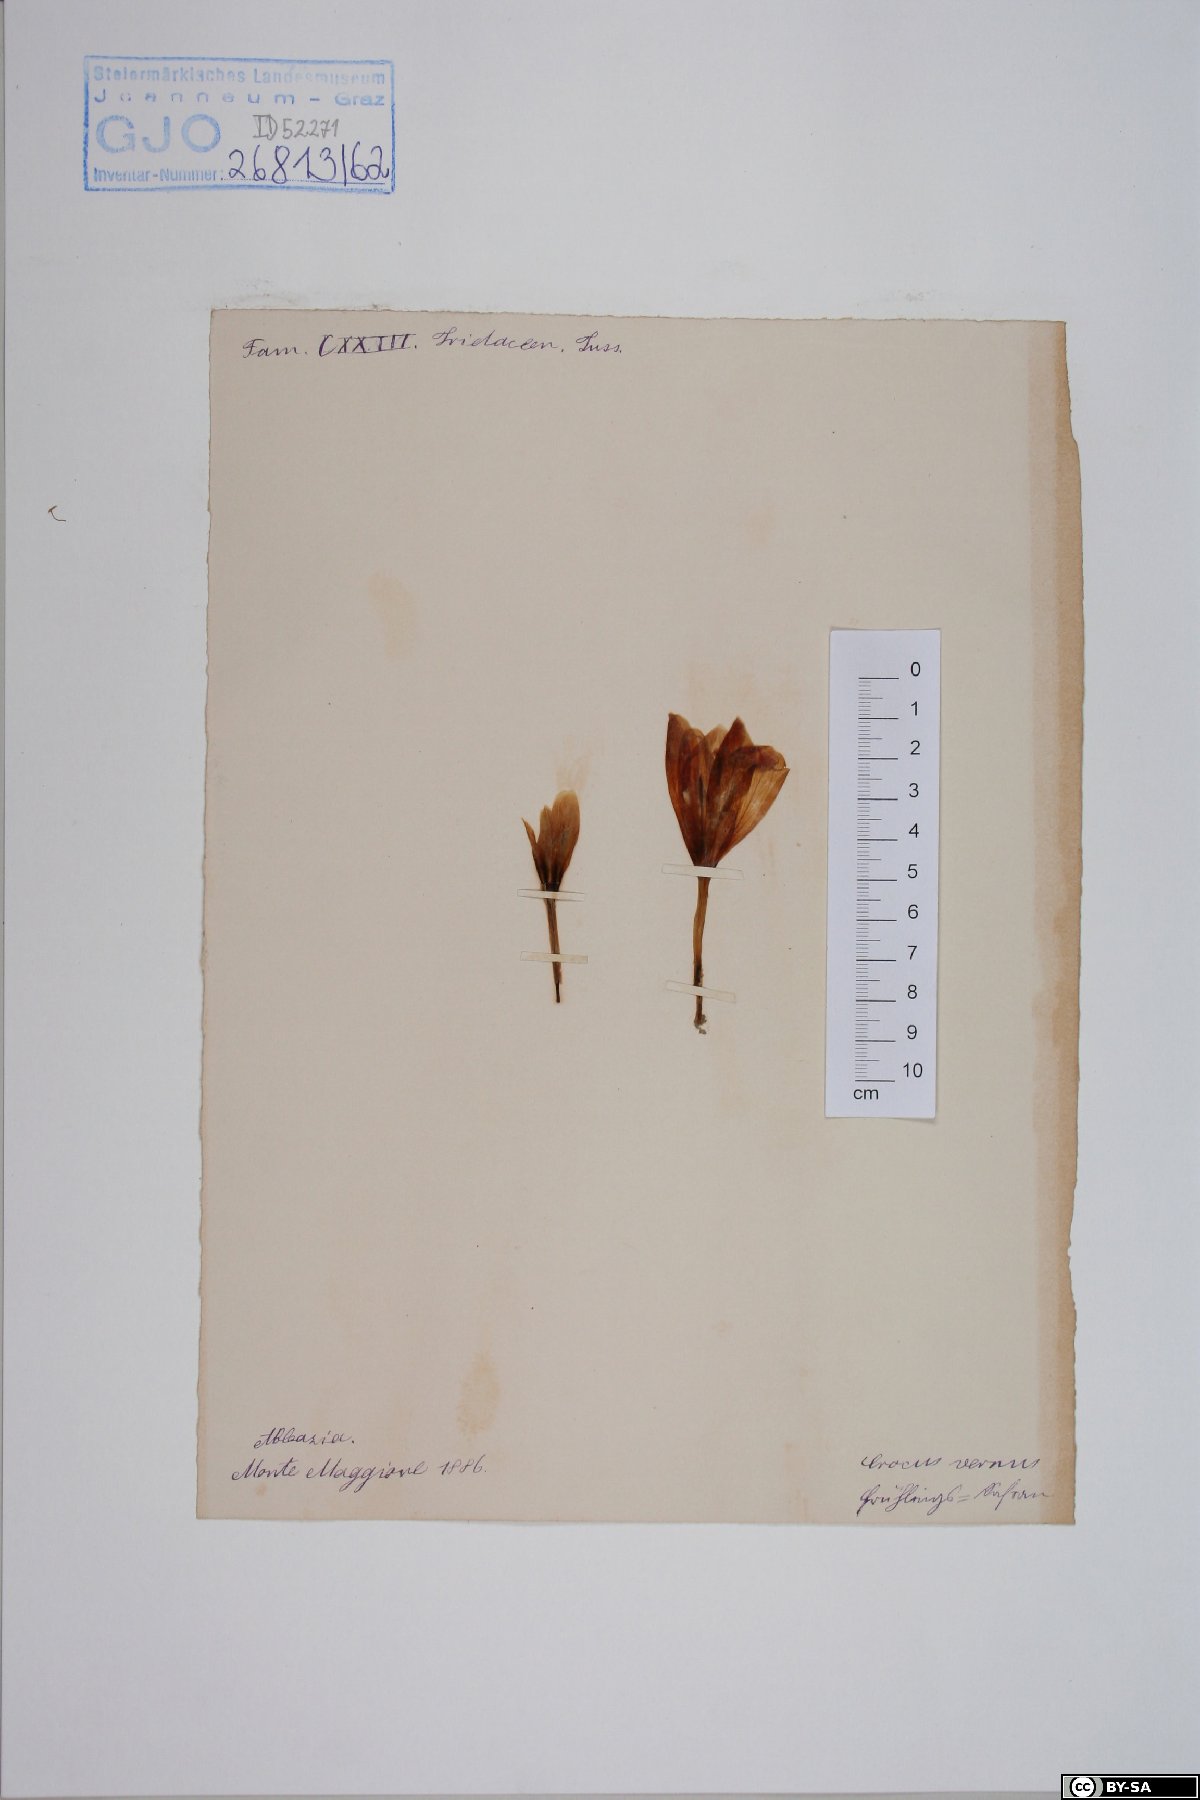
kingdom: Plantae
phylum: Tracheophyta
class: Liliopsida
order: Asparagales
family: Iridaceae
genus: Crocus
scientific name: Crocus vernus
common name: Spring crocus
